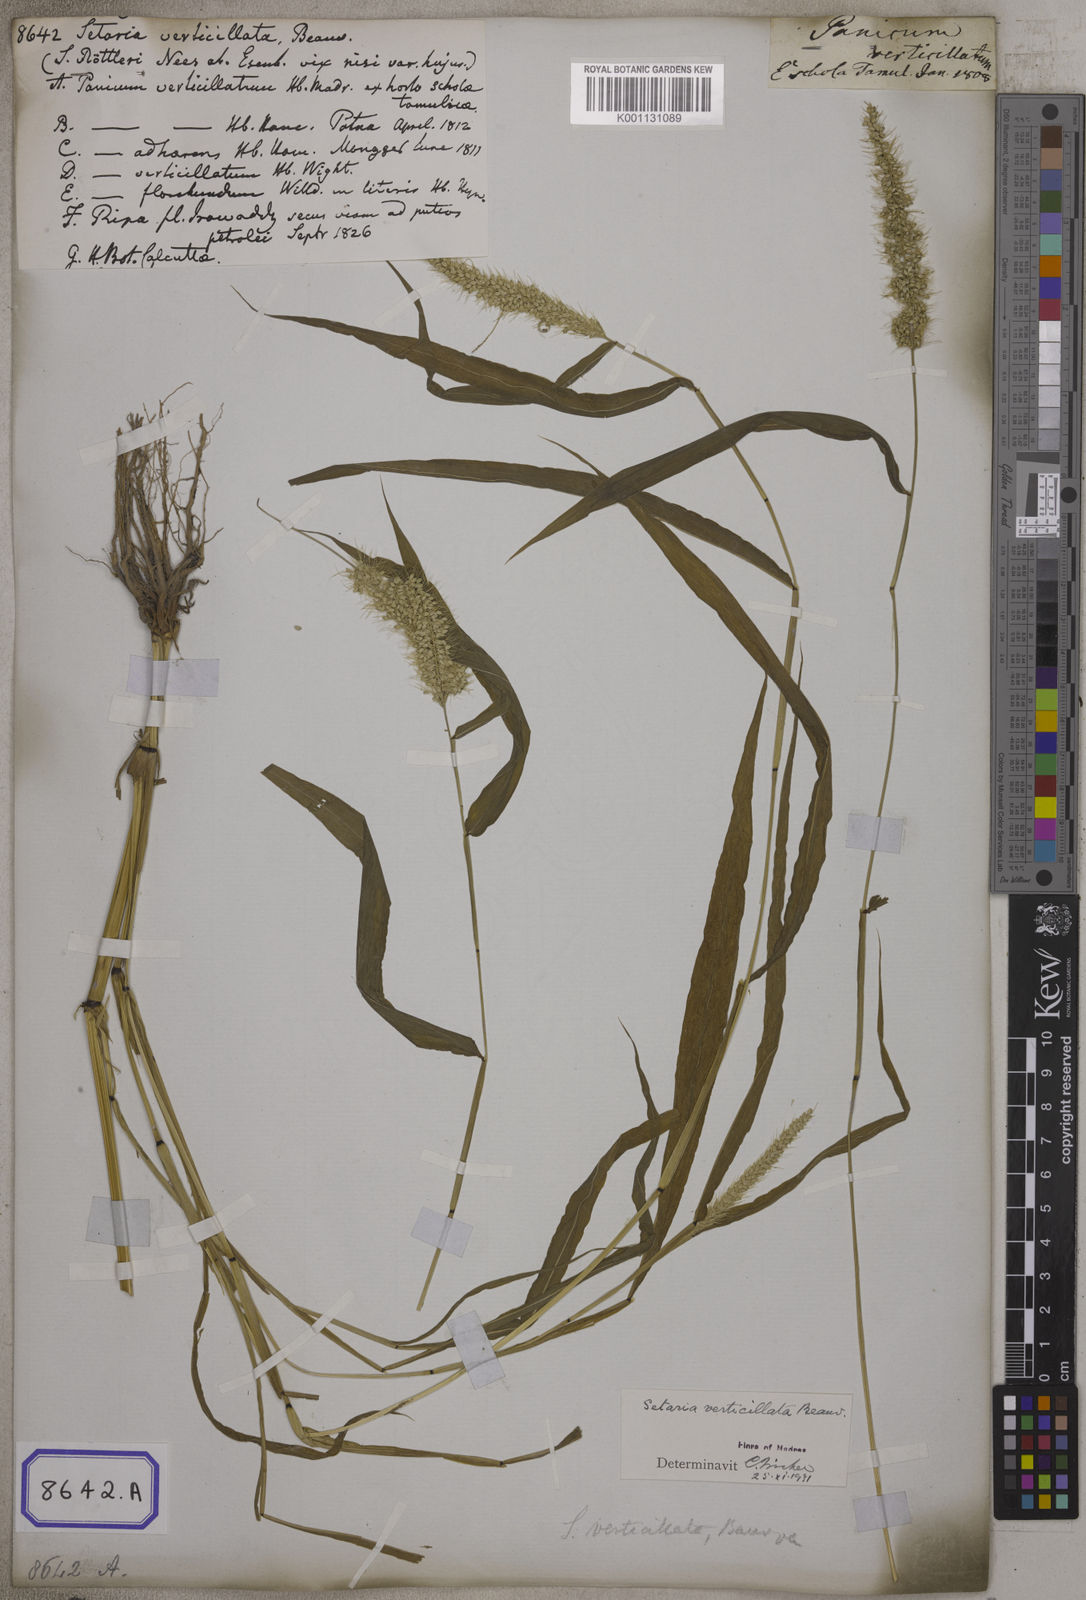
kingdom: Plantae
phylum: Tracheophyta
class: Liliopsida
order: Poales
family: Poaceae
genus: Setaria
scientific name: Setaria verticillata
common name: Hooked bristlegrass
